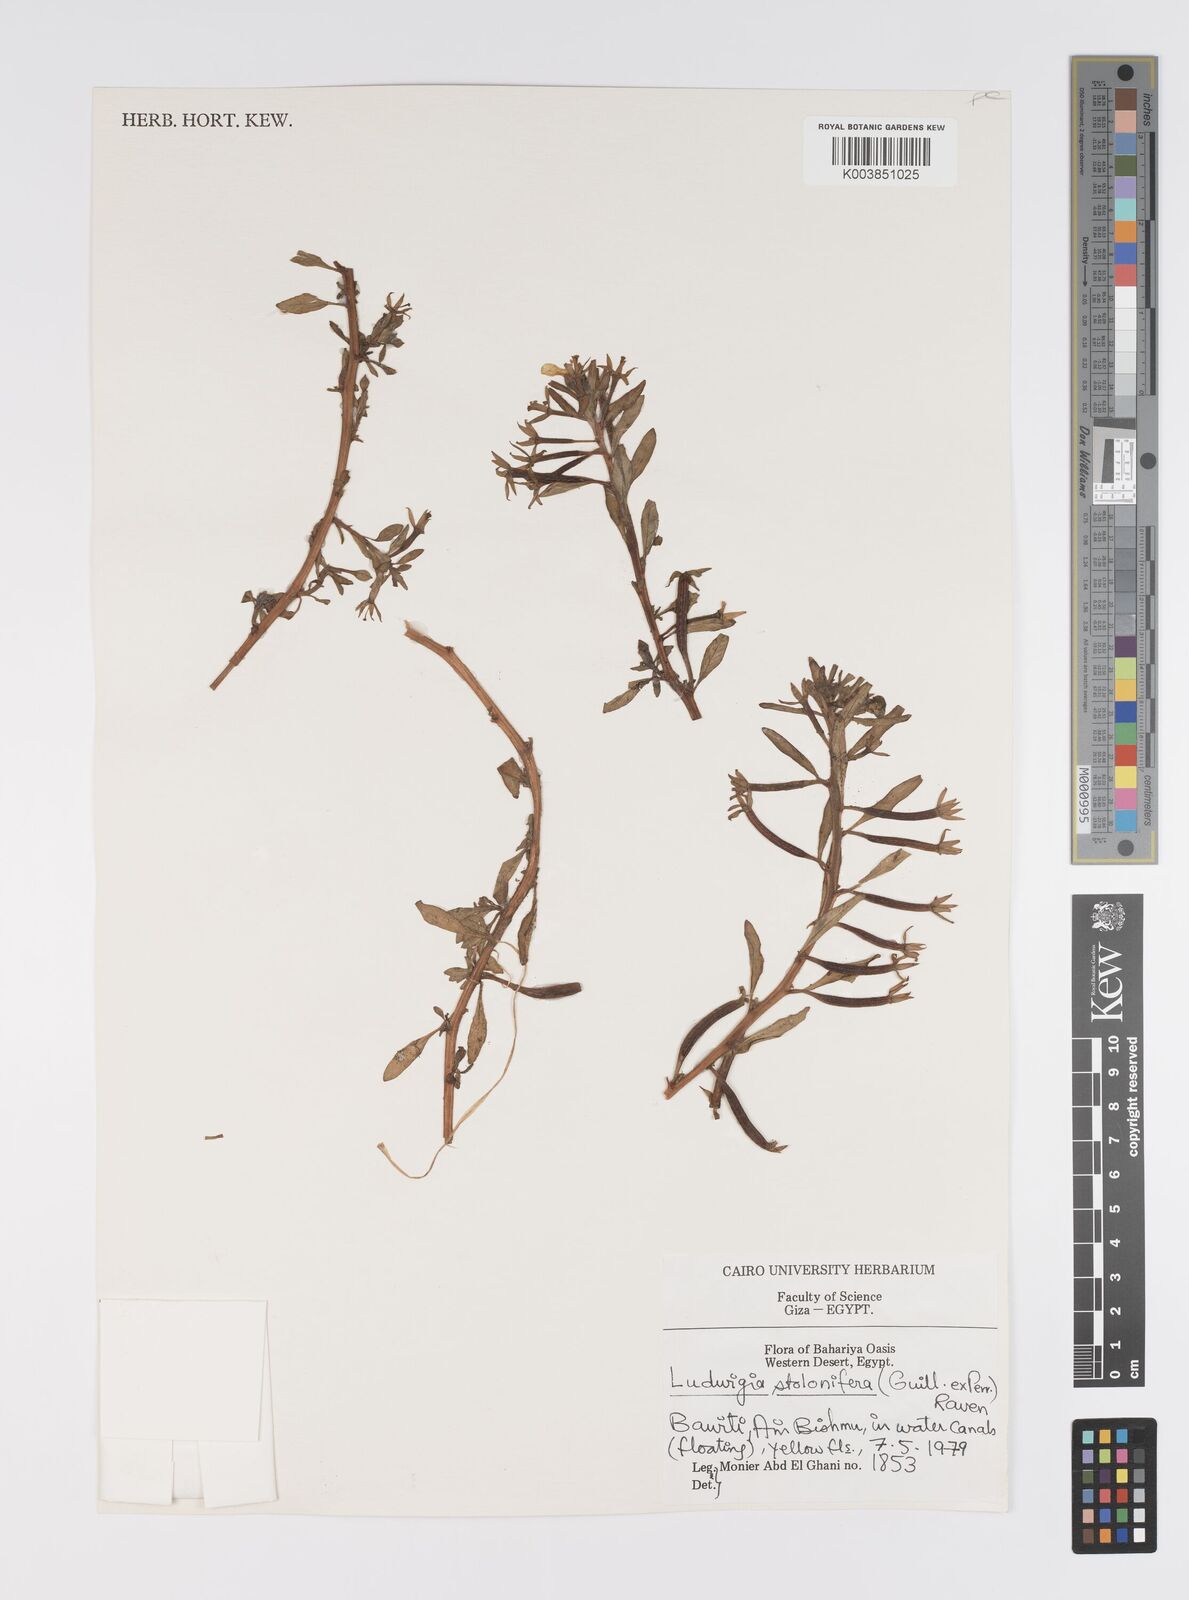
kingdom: Plantae
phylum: Tracheophyta
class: Magnoliopsida
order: Myrtales
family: Onagraceae
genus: Ludwigia
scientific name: Ludwigia adscendens
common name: Creeping water primrose
